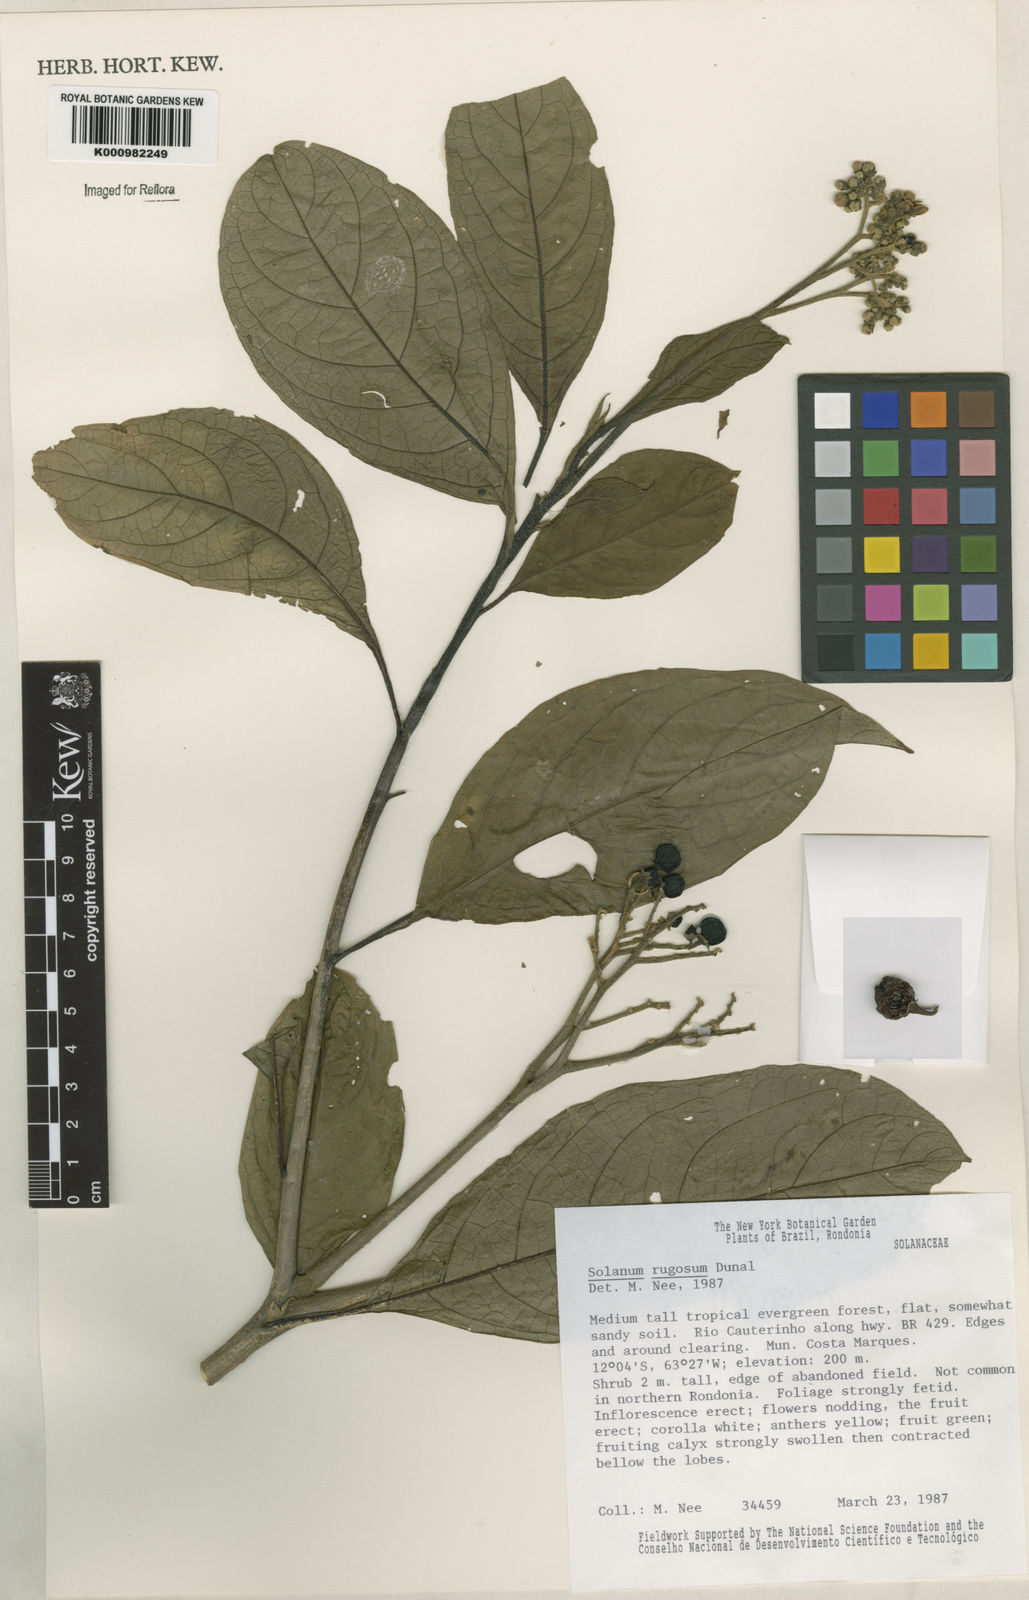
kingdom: Plantae
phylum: Tracheophyta
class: Magnoliopsida
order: Solanales
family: Solanaceae
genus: Solanum
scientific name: Solanum rugosum
